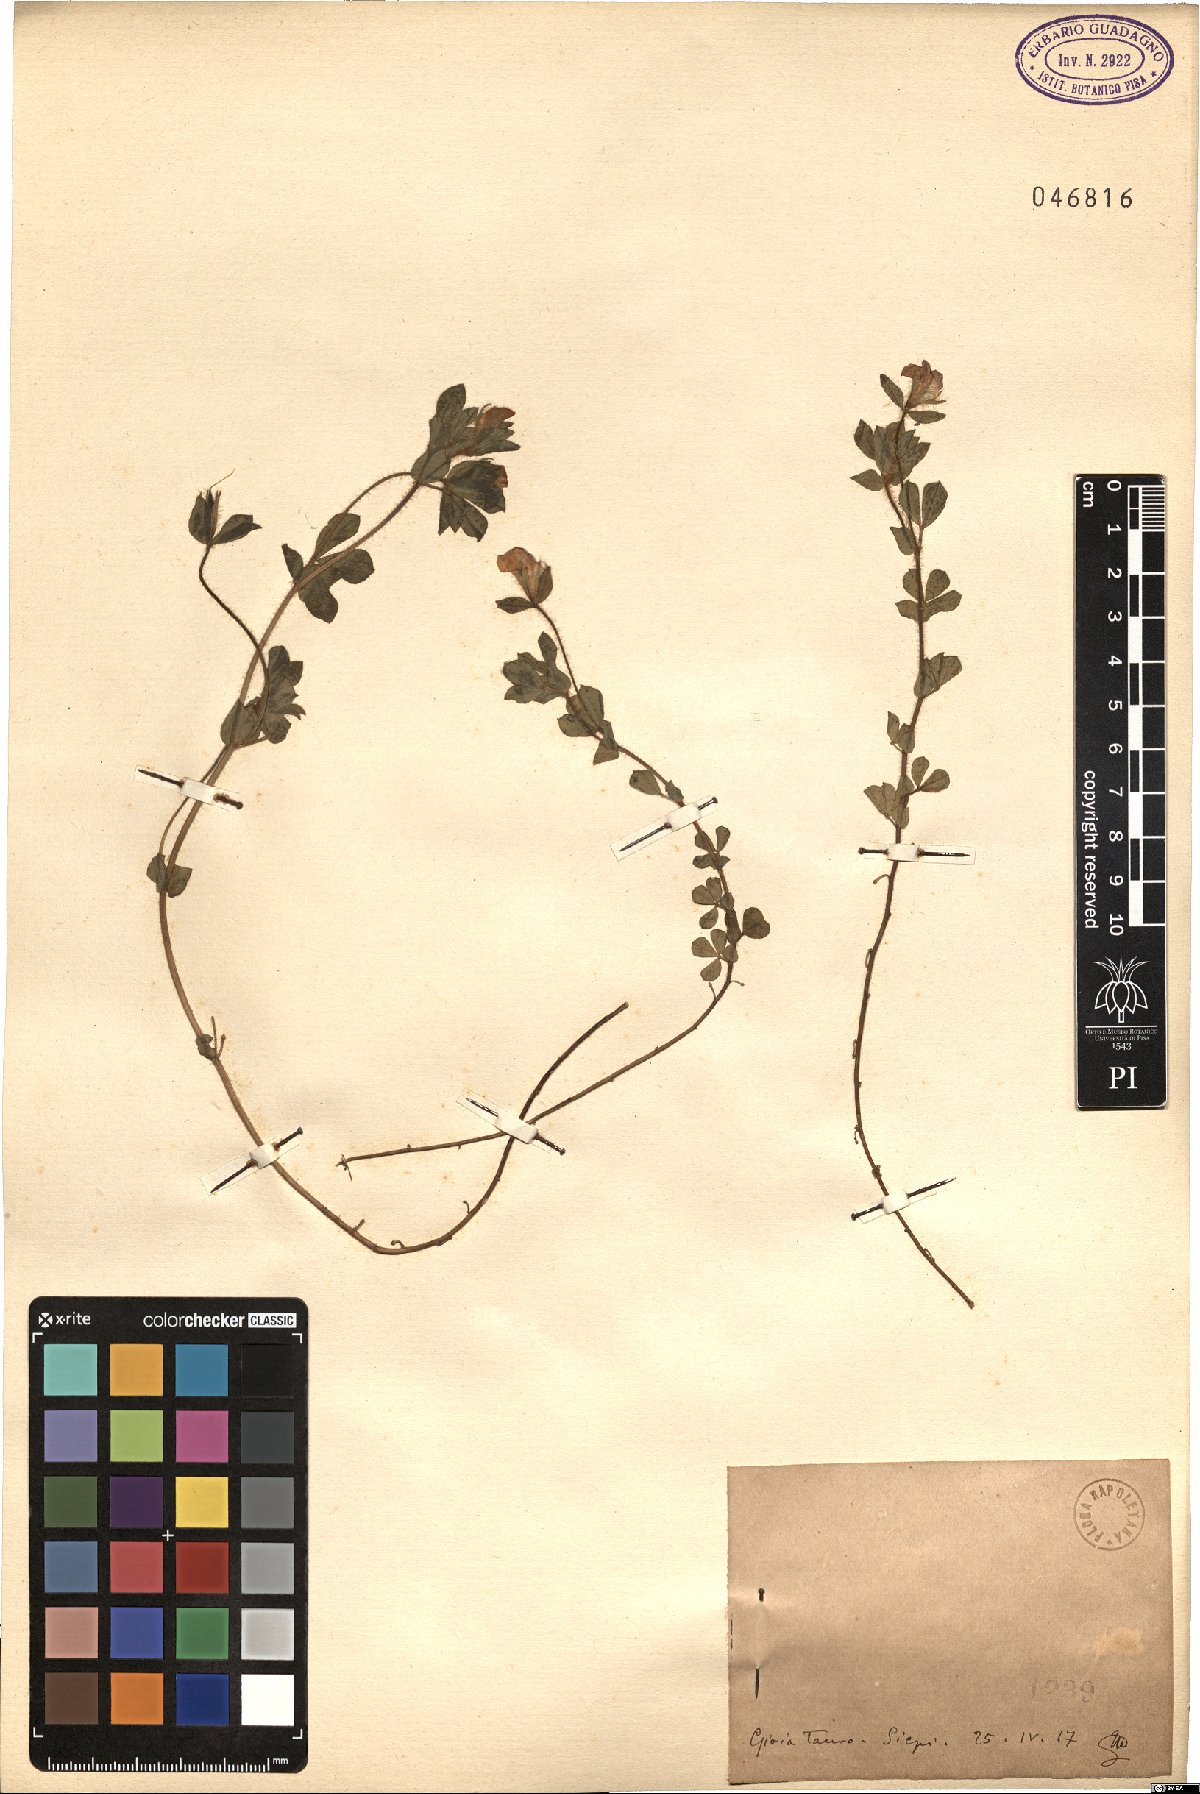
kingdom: Plantae
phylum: Tracheophyta
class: Magnoliopsida
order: Fabales
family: Fabaceae
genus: Lotus
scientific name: Lotus
